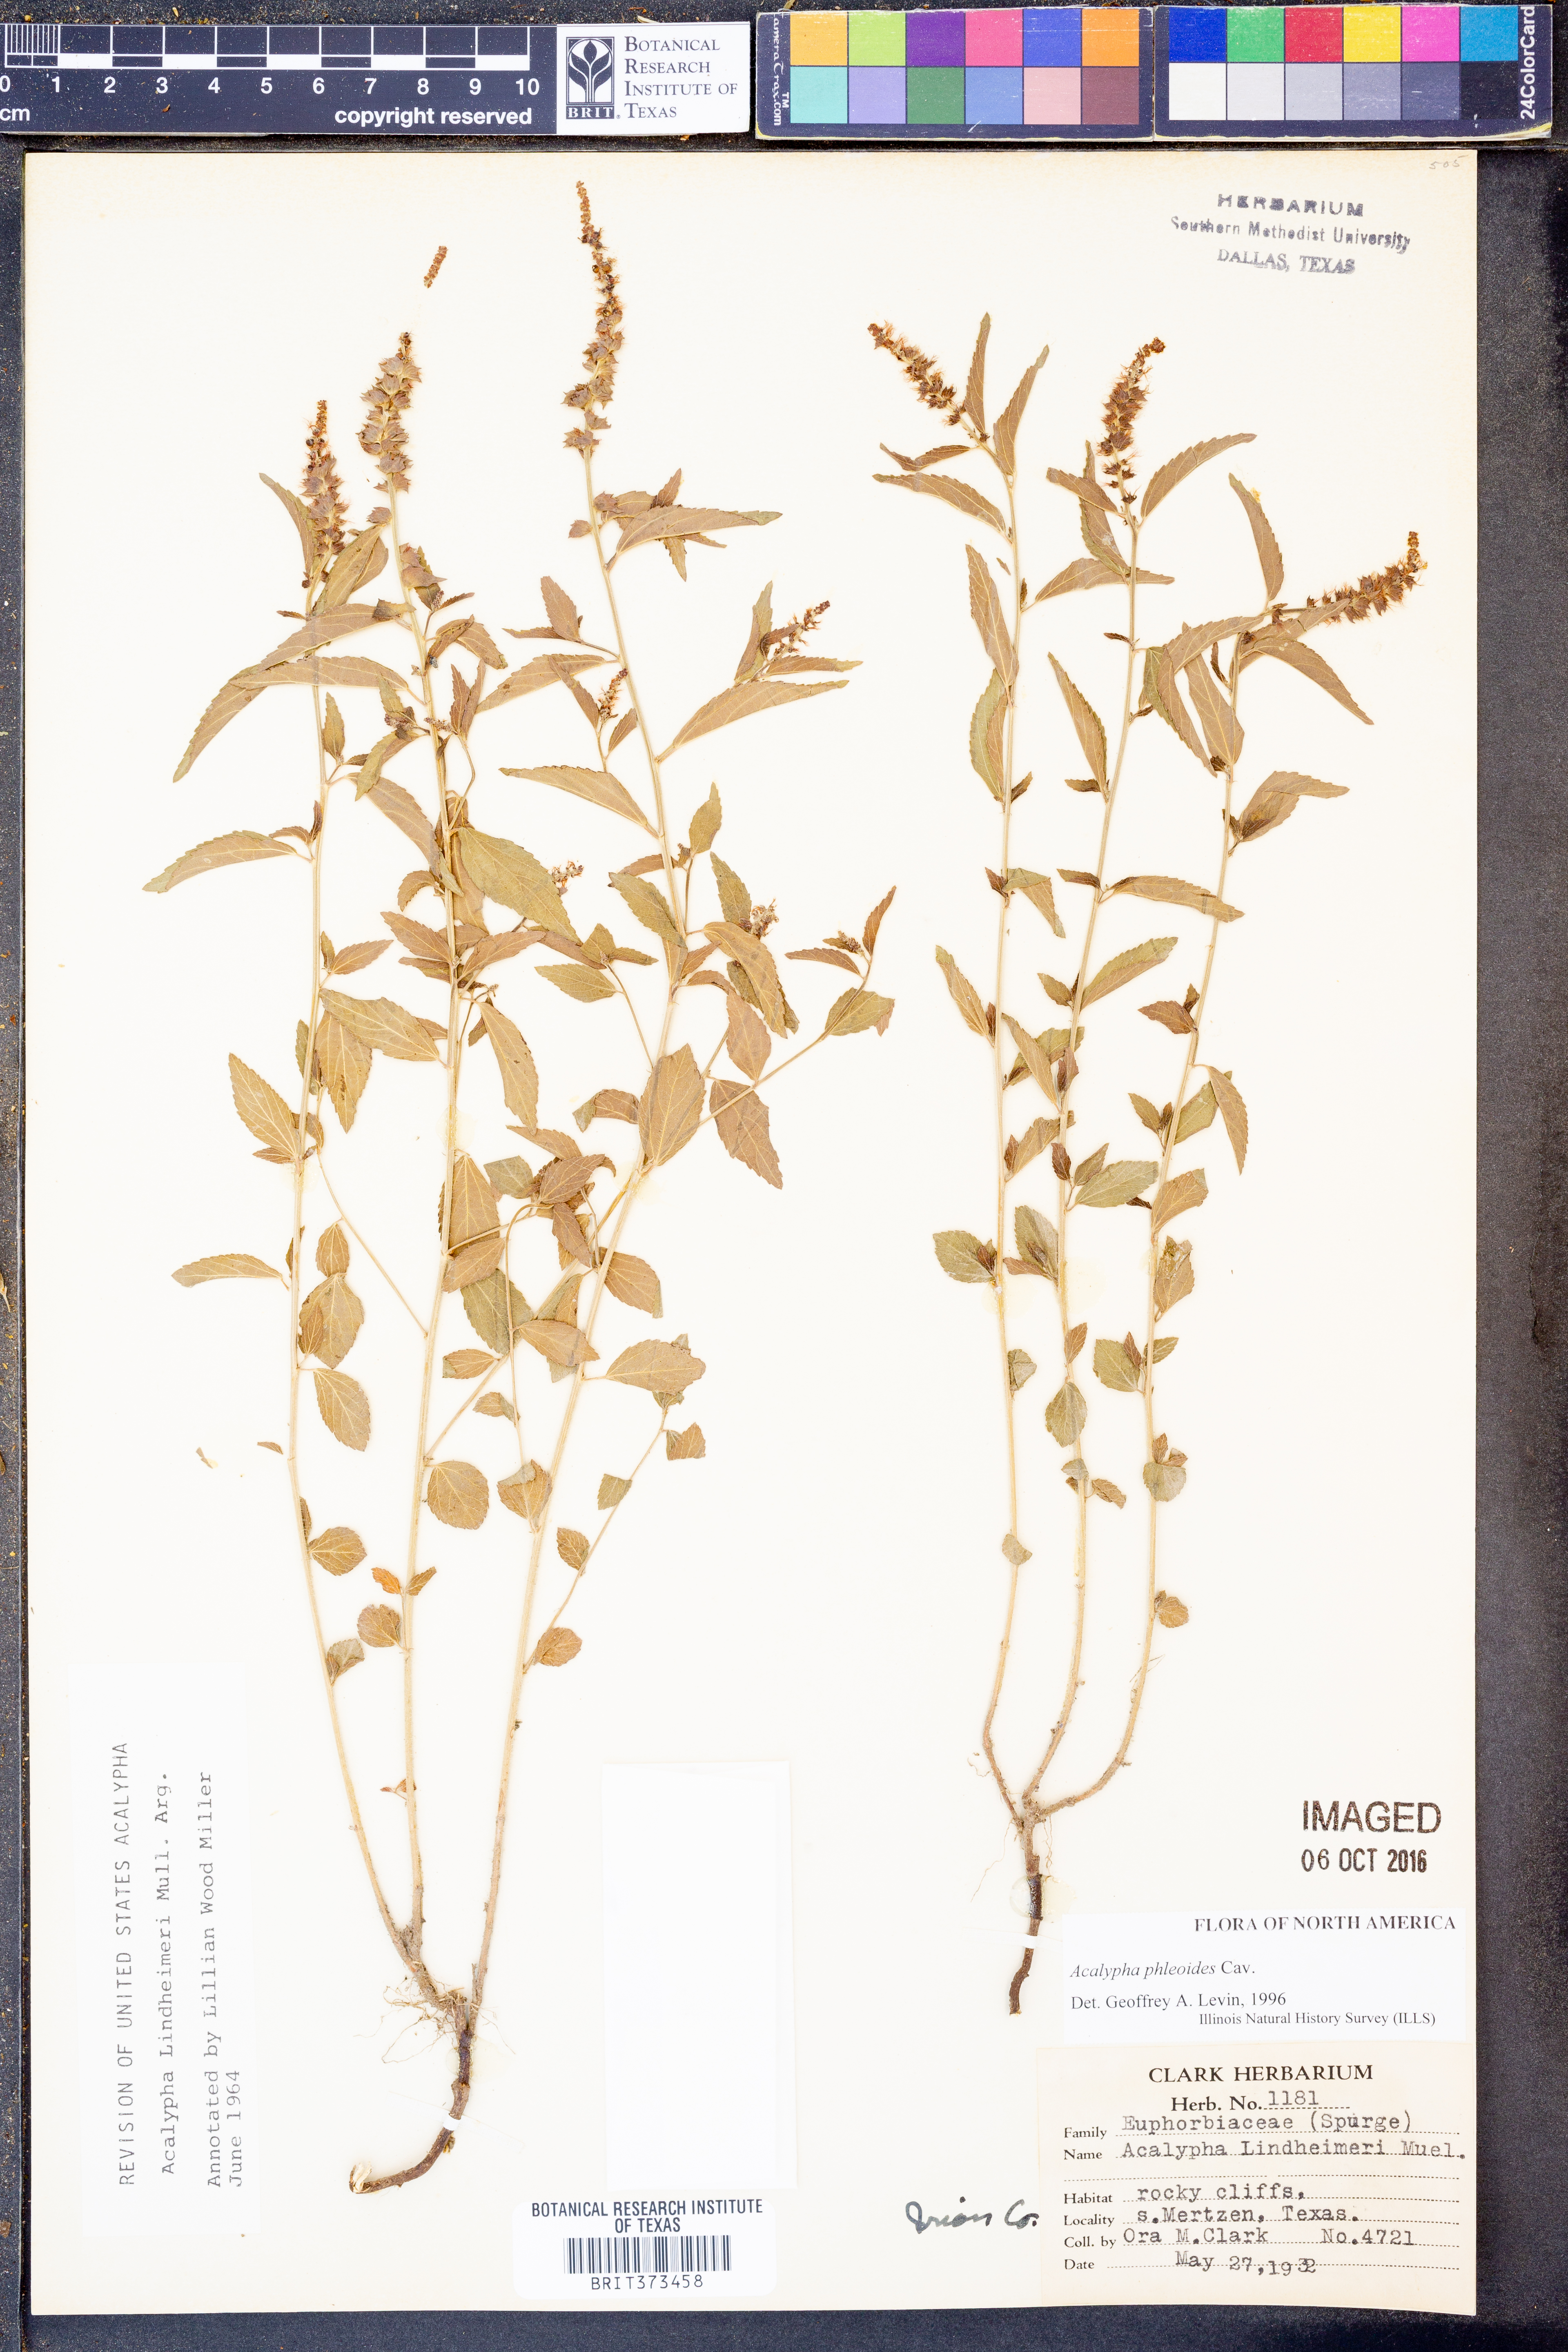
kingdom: Plantae
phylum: Tracheophyta
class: Magnoliopsida
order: Malpighiales
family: Euphorbiaceae
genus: Acalypha
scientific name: Acalypha phleoides
